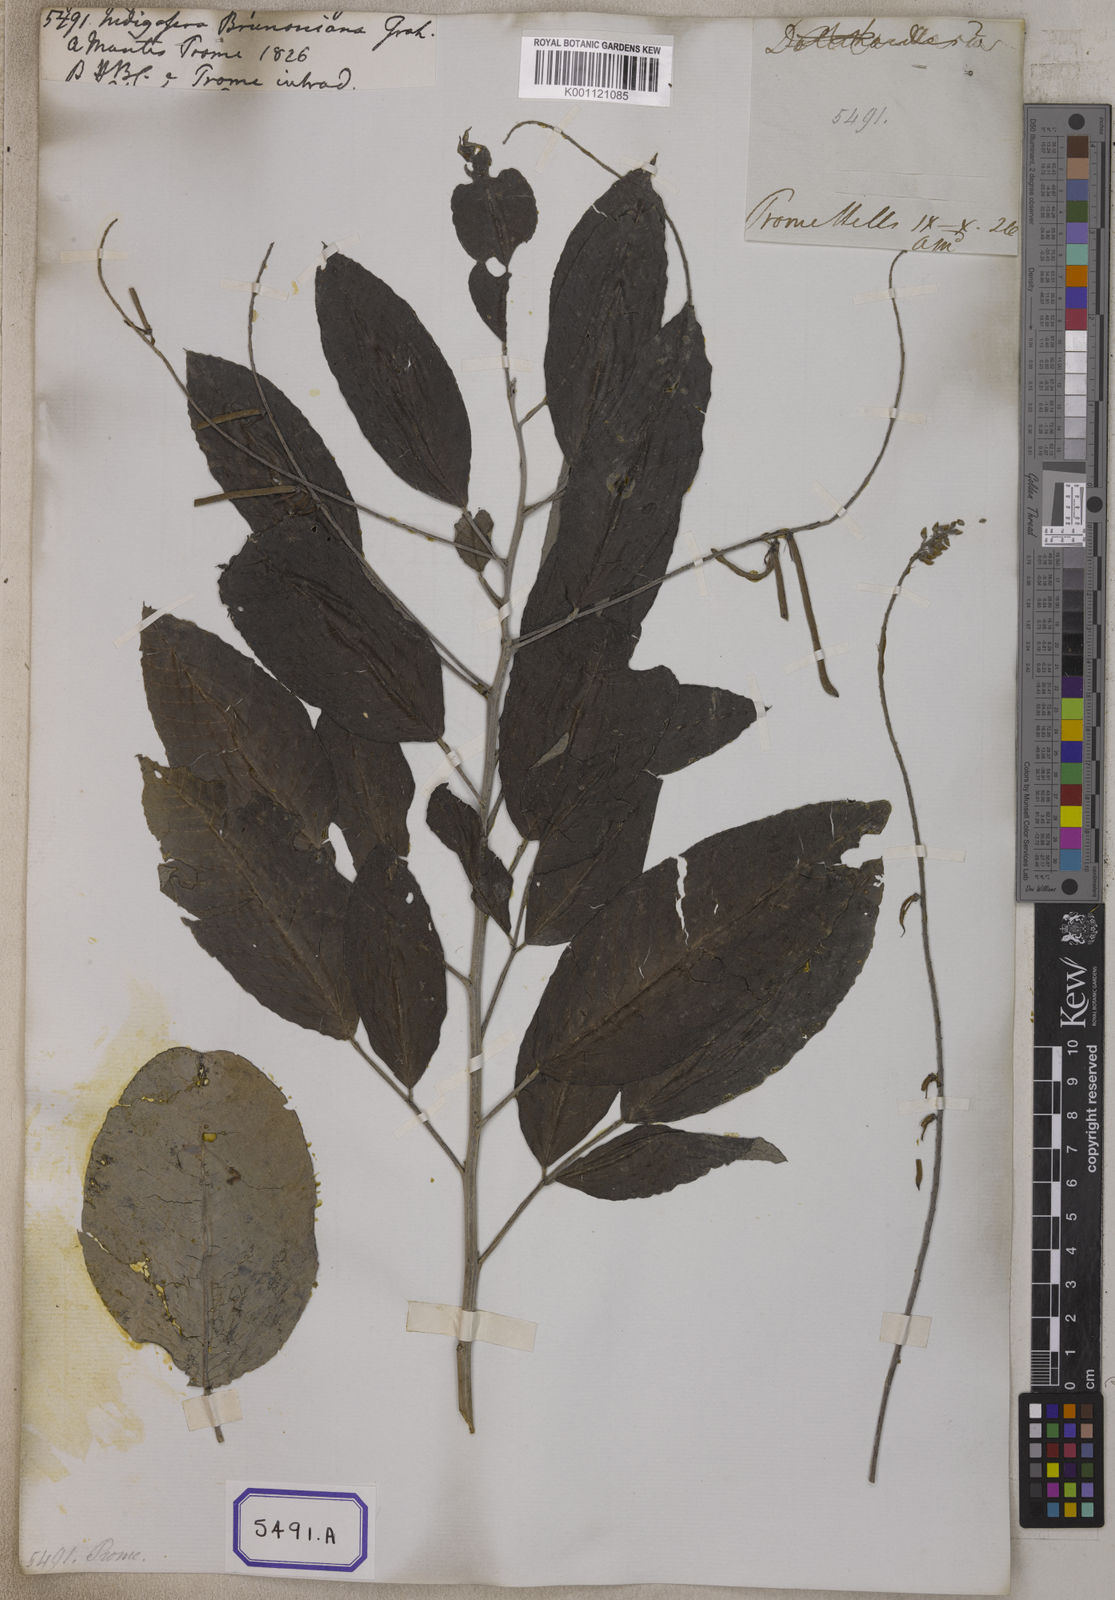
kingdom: Plantae
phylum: Tracheophyta
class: Magnoliopsida
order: Fabales
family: Fabaceae
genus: Indigofera
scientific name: Indigofera
